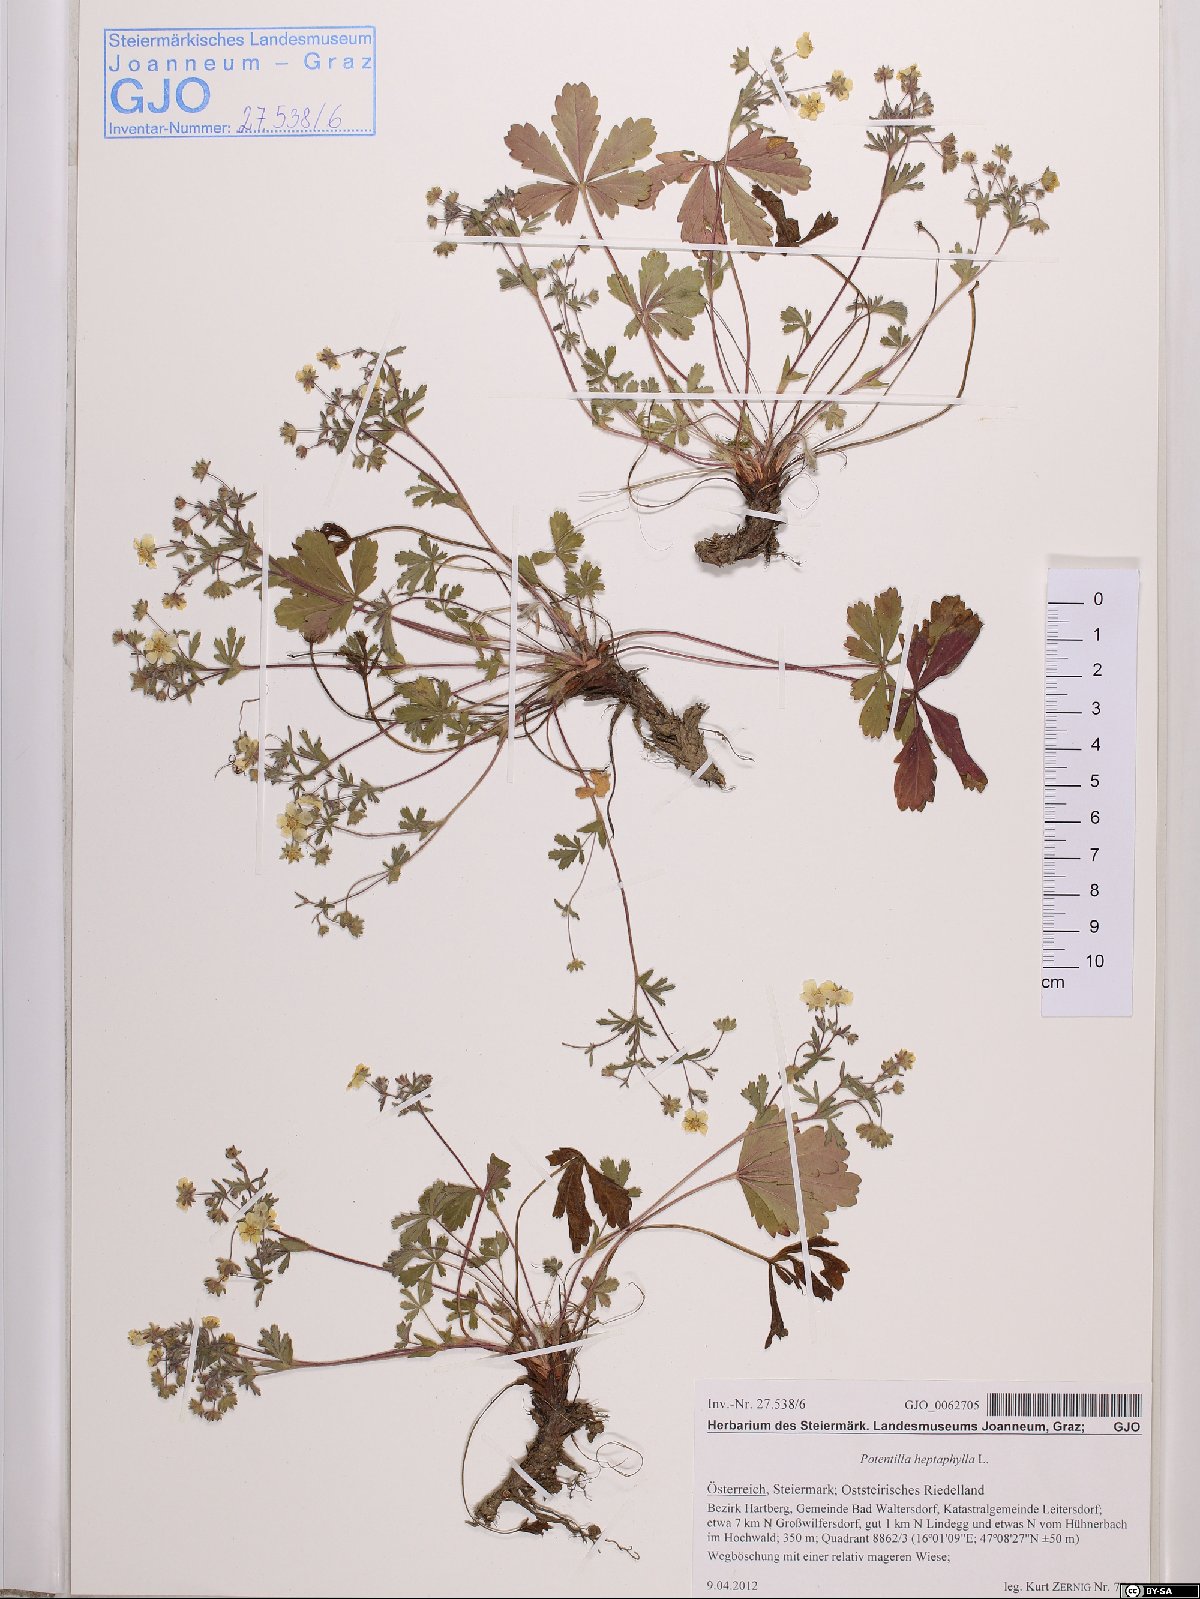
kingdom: Plantae
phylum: Tracheophyta
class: Magnoliopsida
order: Rosales
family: Rosaceae
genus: Potentilla
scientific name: Potentilla heptaphylla
